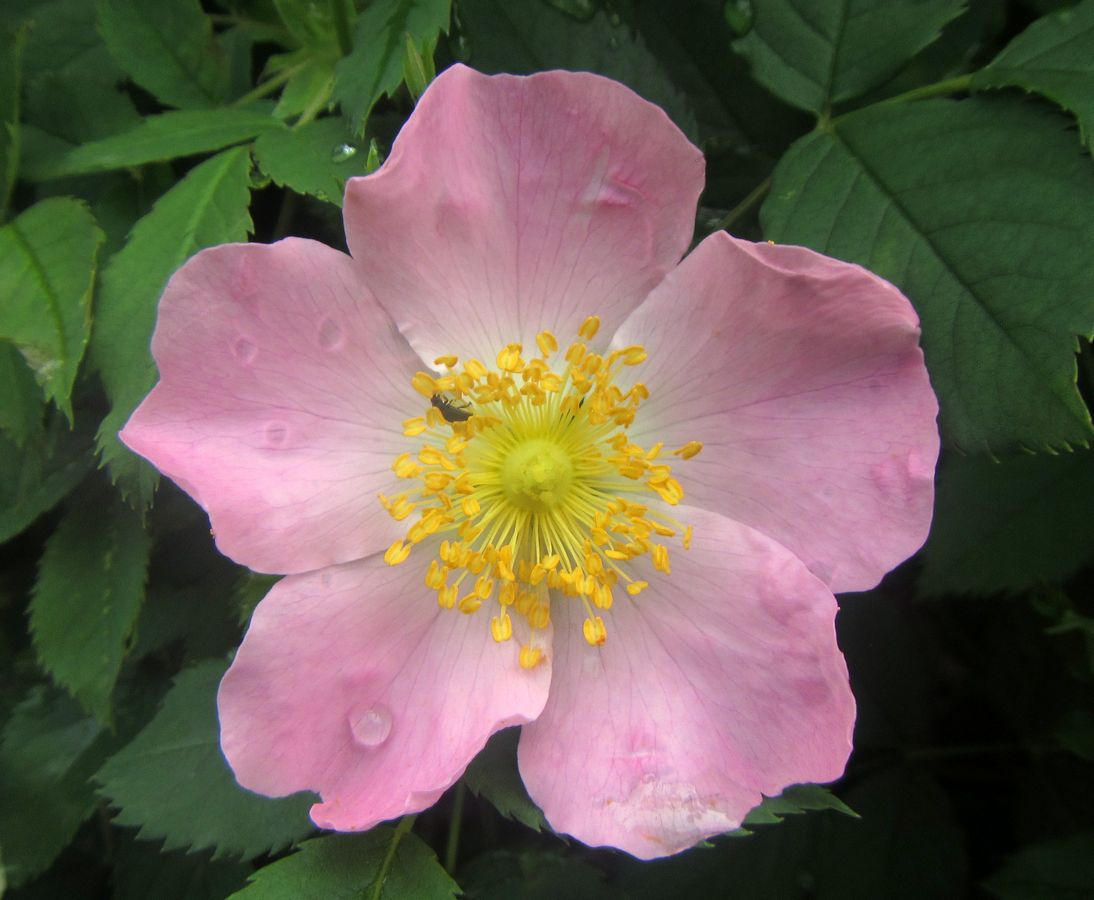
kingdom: Plantae
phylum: Tracheophyta
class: Magnoliopsida
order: Rosales
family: Rosaceae
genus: Rosa
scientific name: Rosa
